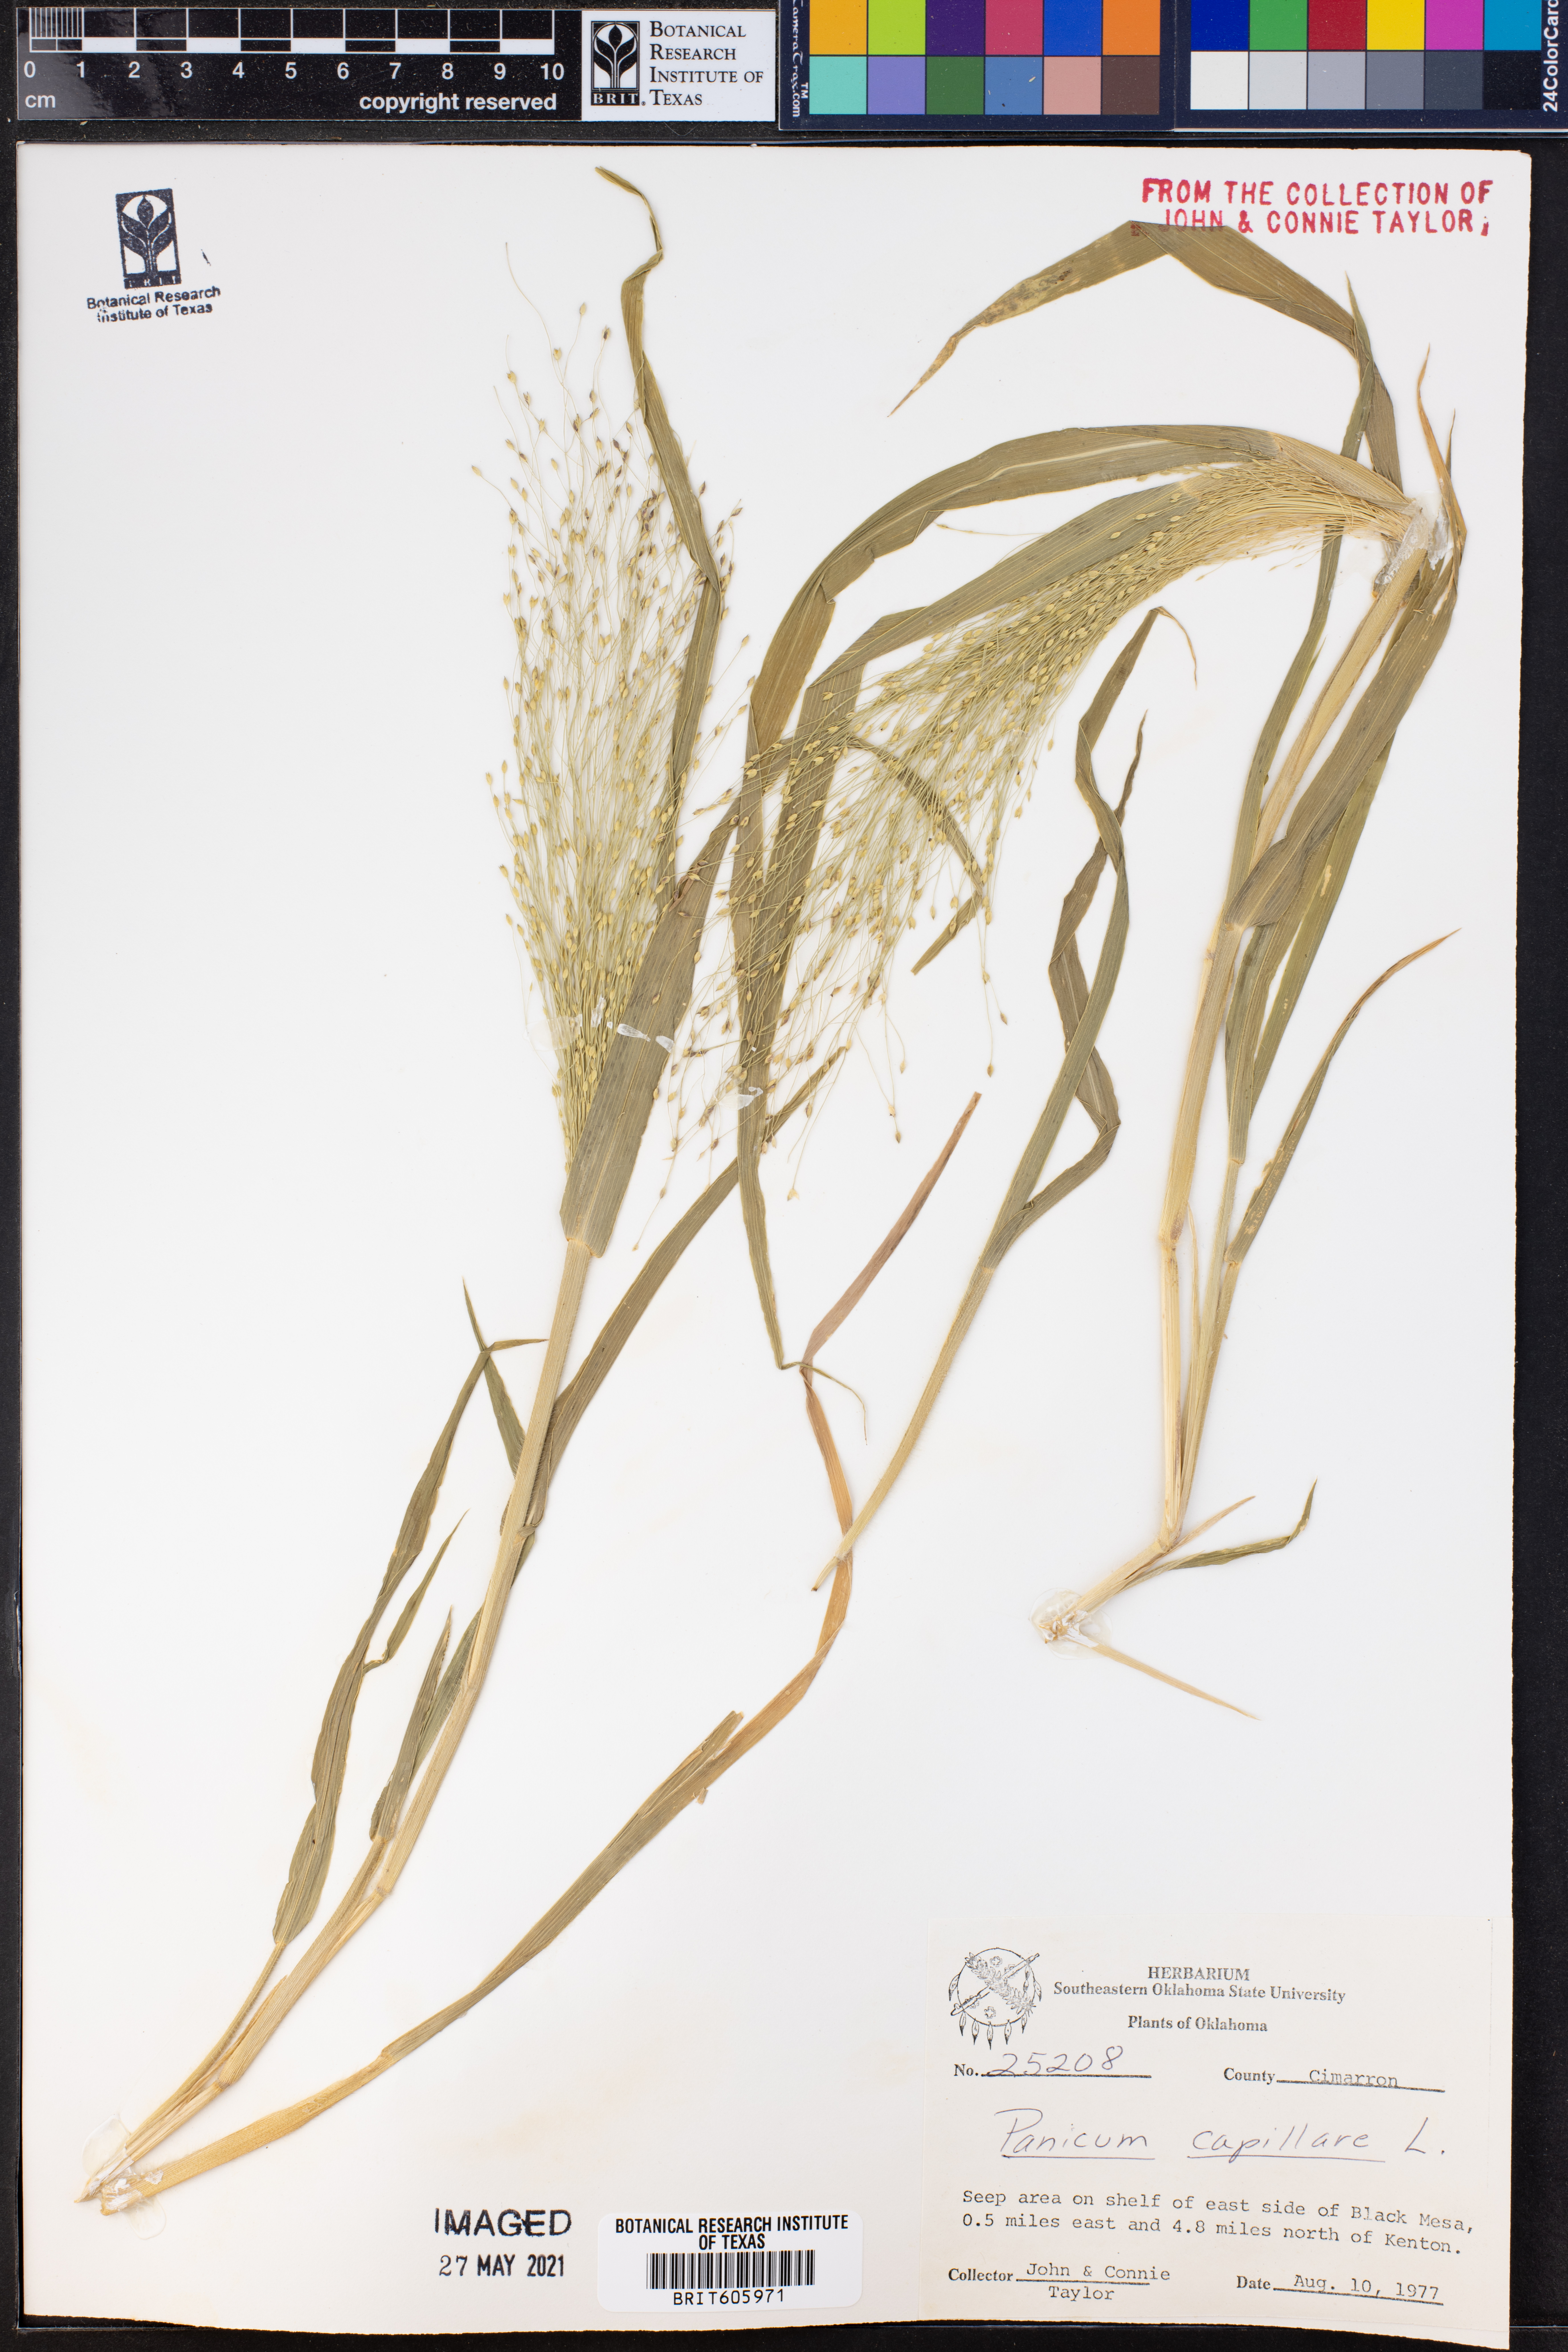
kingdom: Plantae
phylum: Tracheophyta
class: Liliopsida
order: Poales
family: Poaceae
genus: Panicum
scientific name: Panicum capillare
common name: Witch-grass
